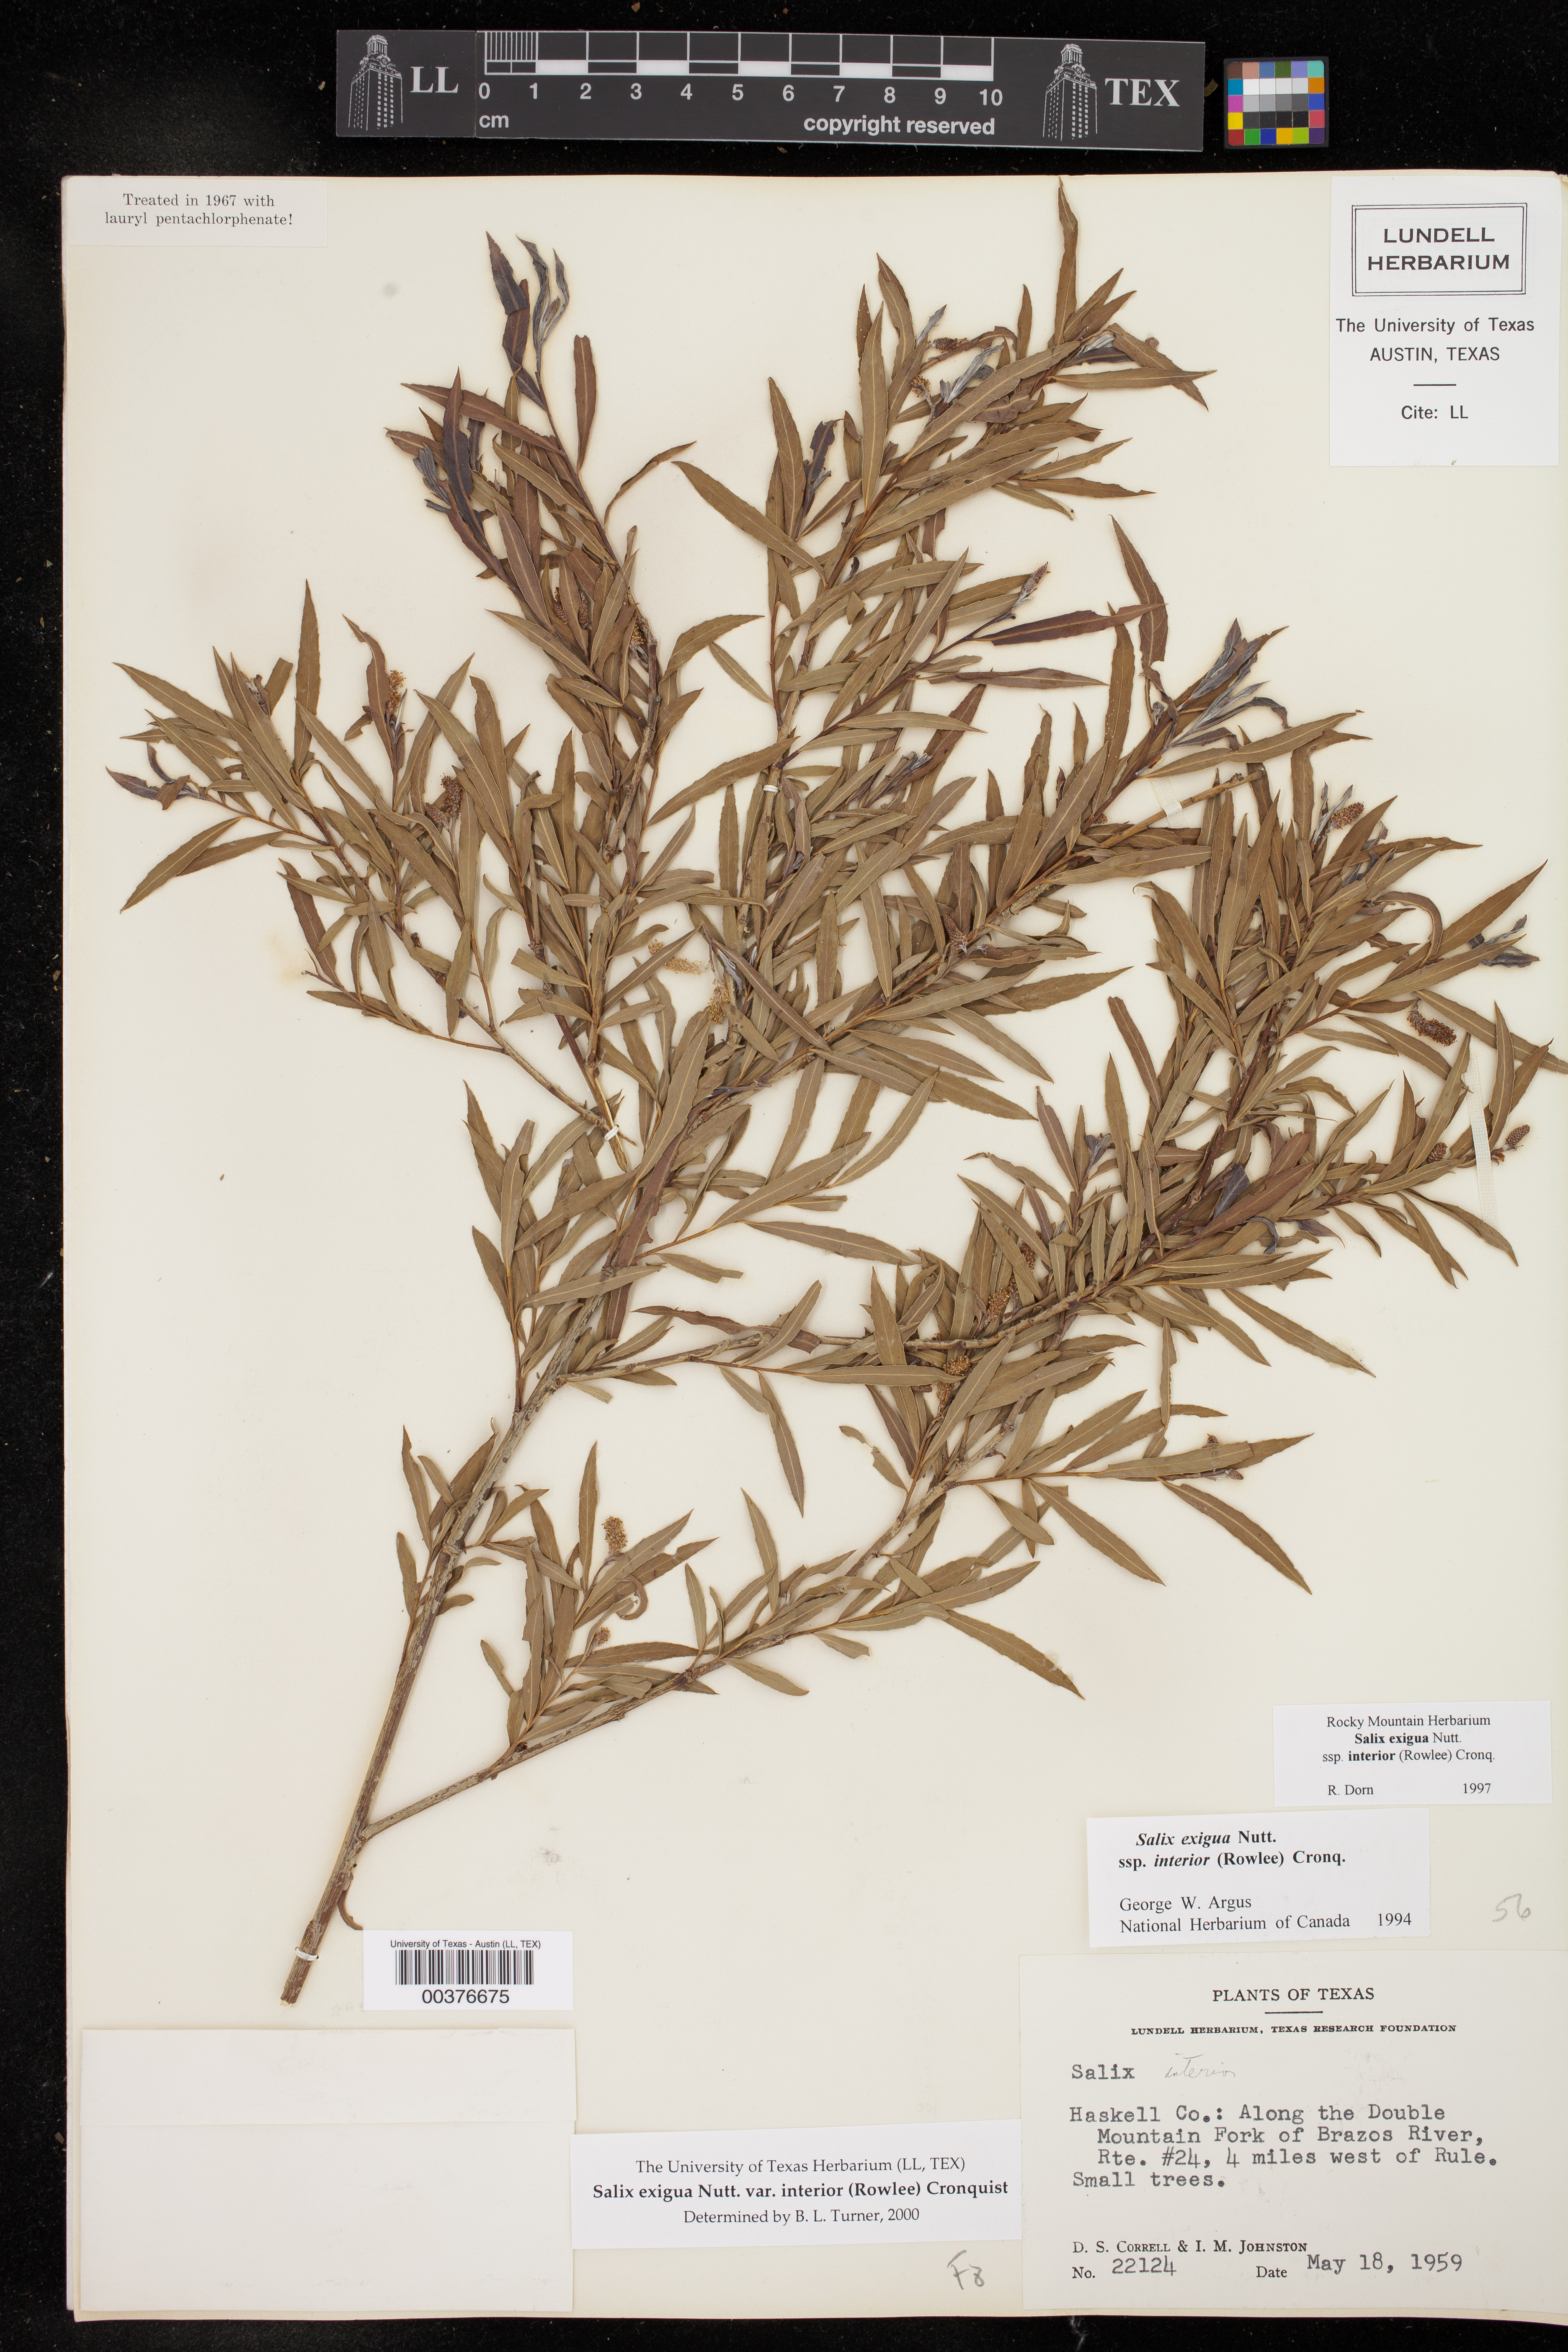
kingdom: Plantae
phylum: Tracheophyta
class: Magnoliopsida
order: Malpighiales
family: Salicaceae
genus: Salix
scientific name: Salix interior
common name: Sandbar willow
